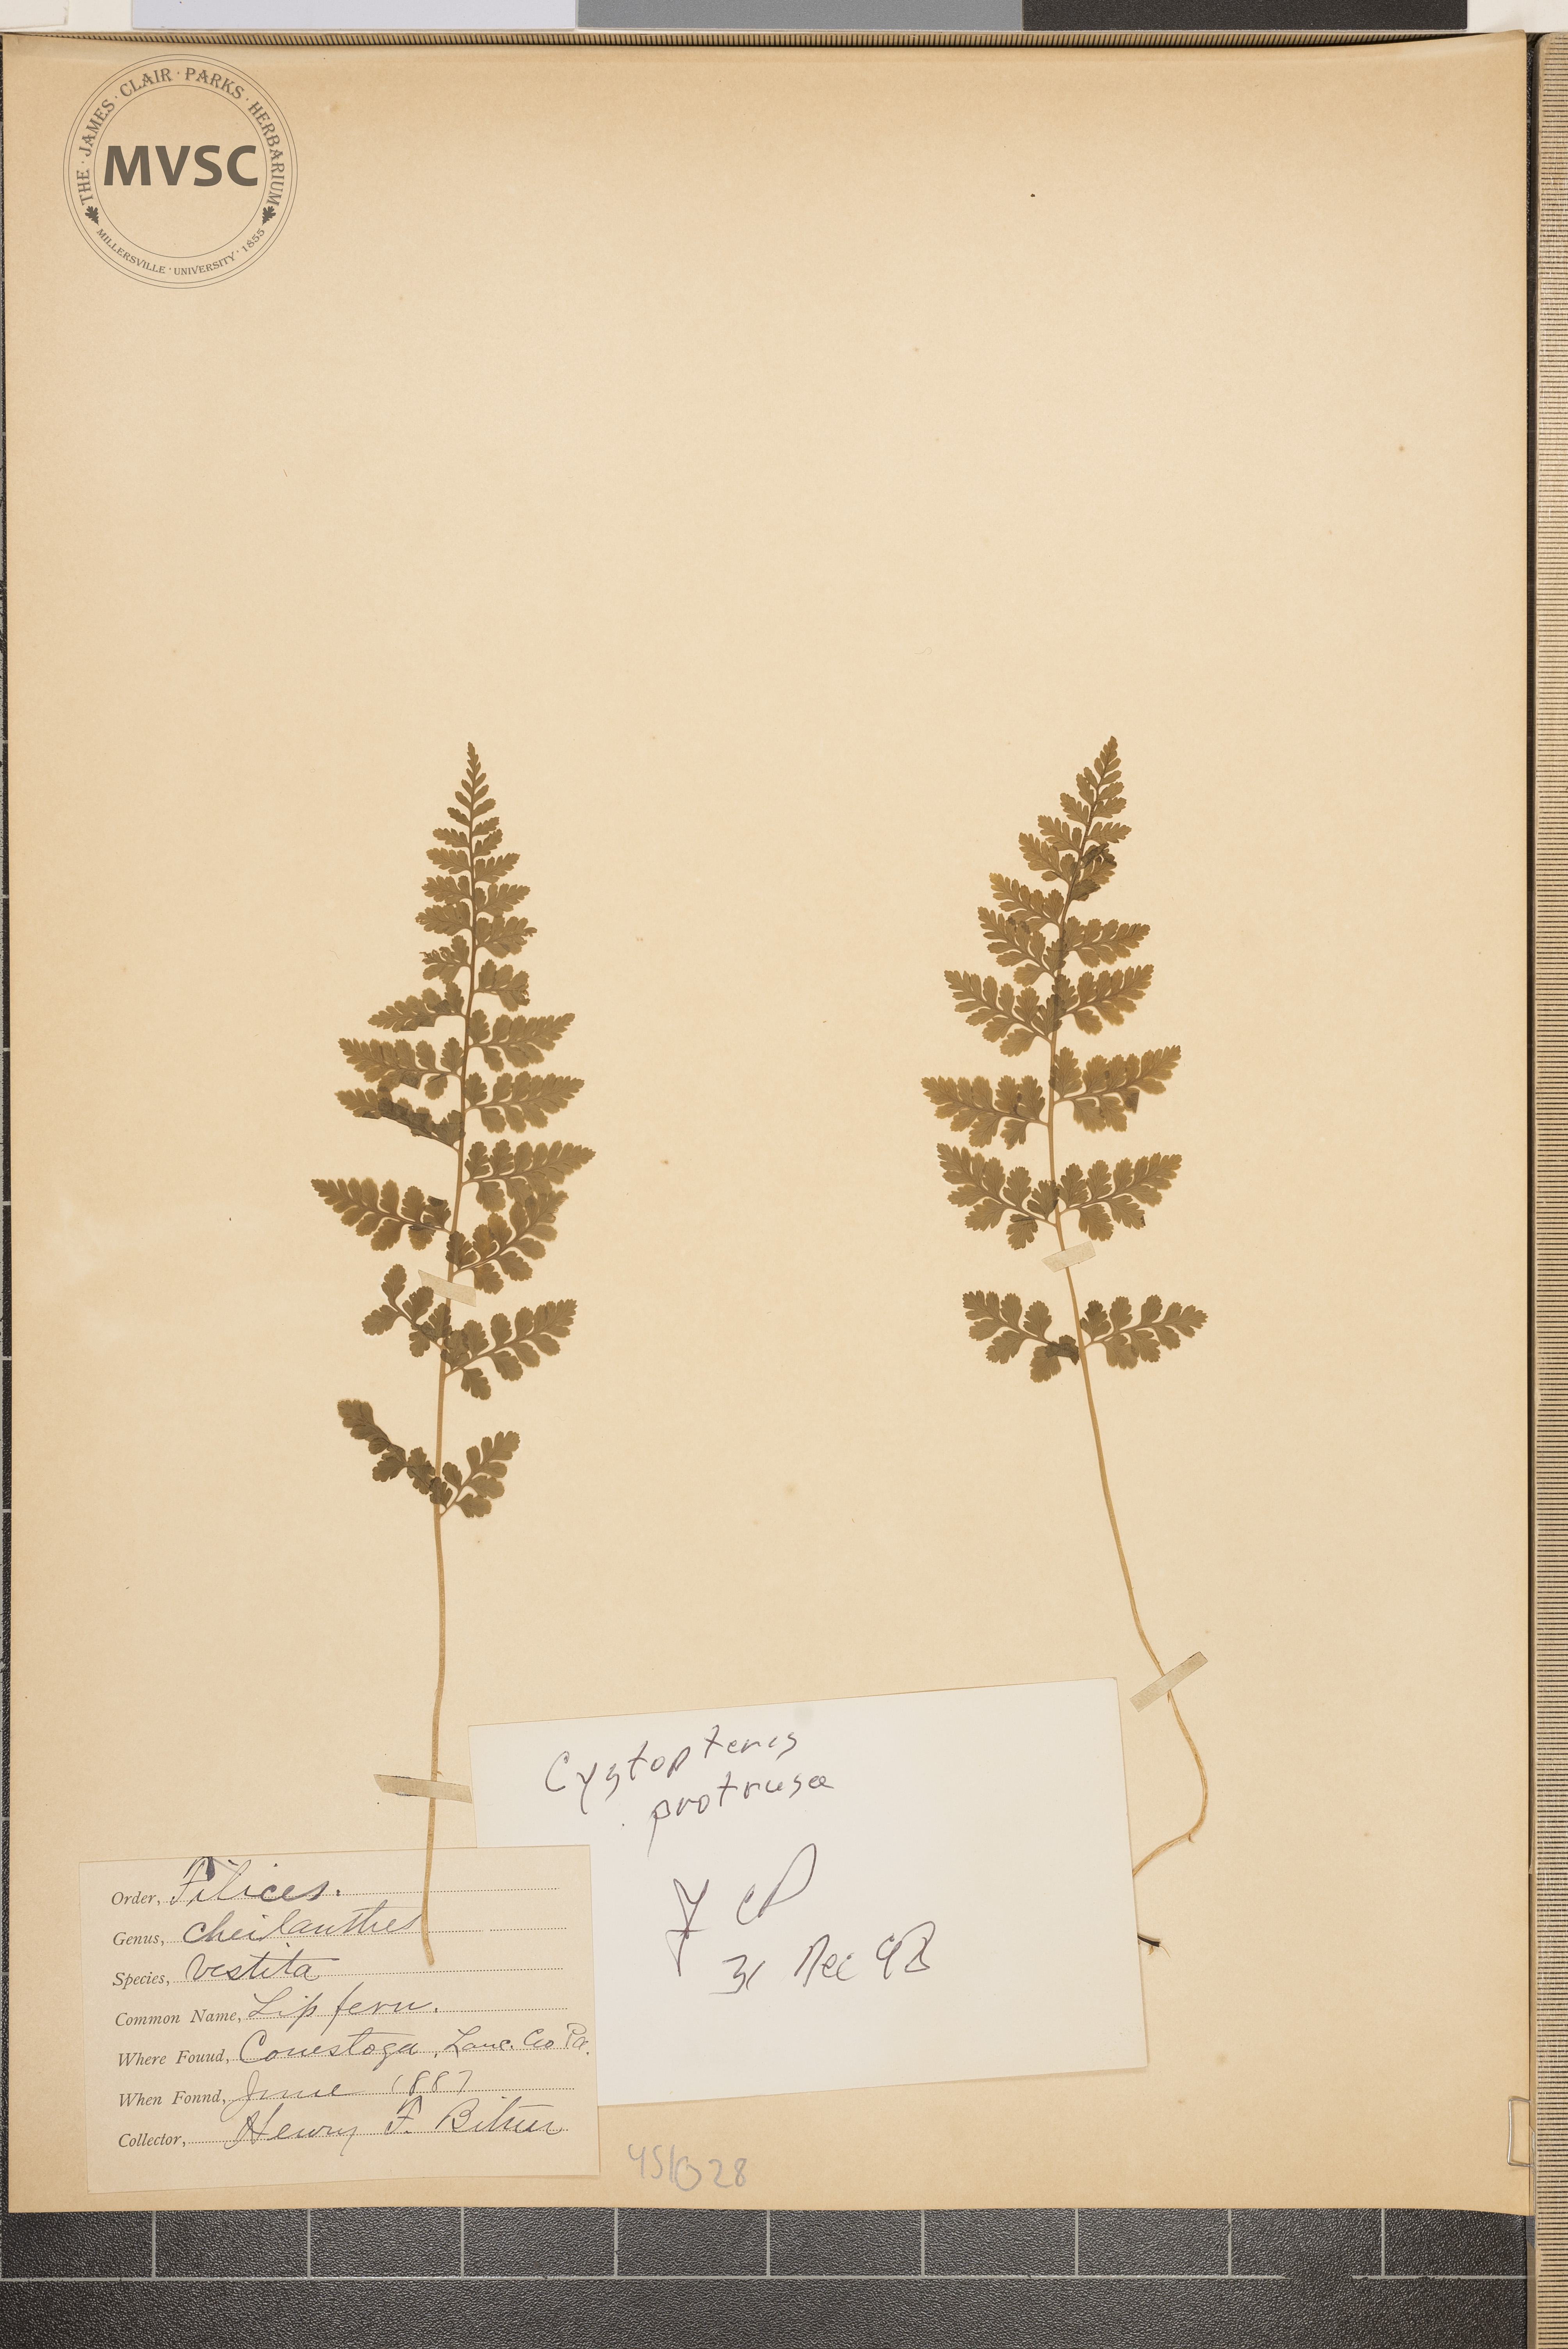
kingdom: Plantae
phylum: Tracheophyta
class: Polypodiopsida
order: Polypodiales
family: Cystopteridaceae
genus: Cystopteris
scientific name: Cystopteris protrusa
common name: Lowland brittle fern
